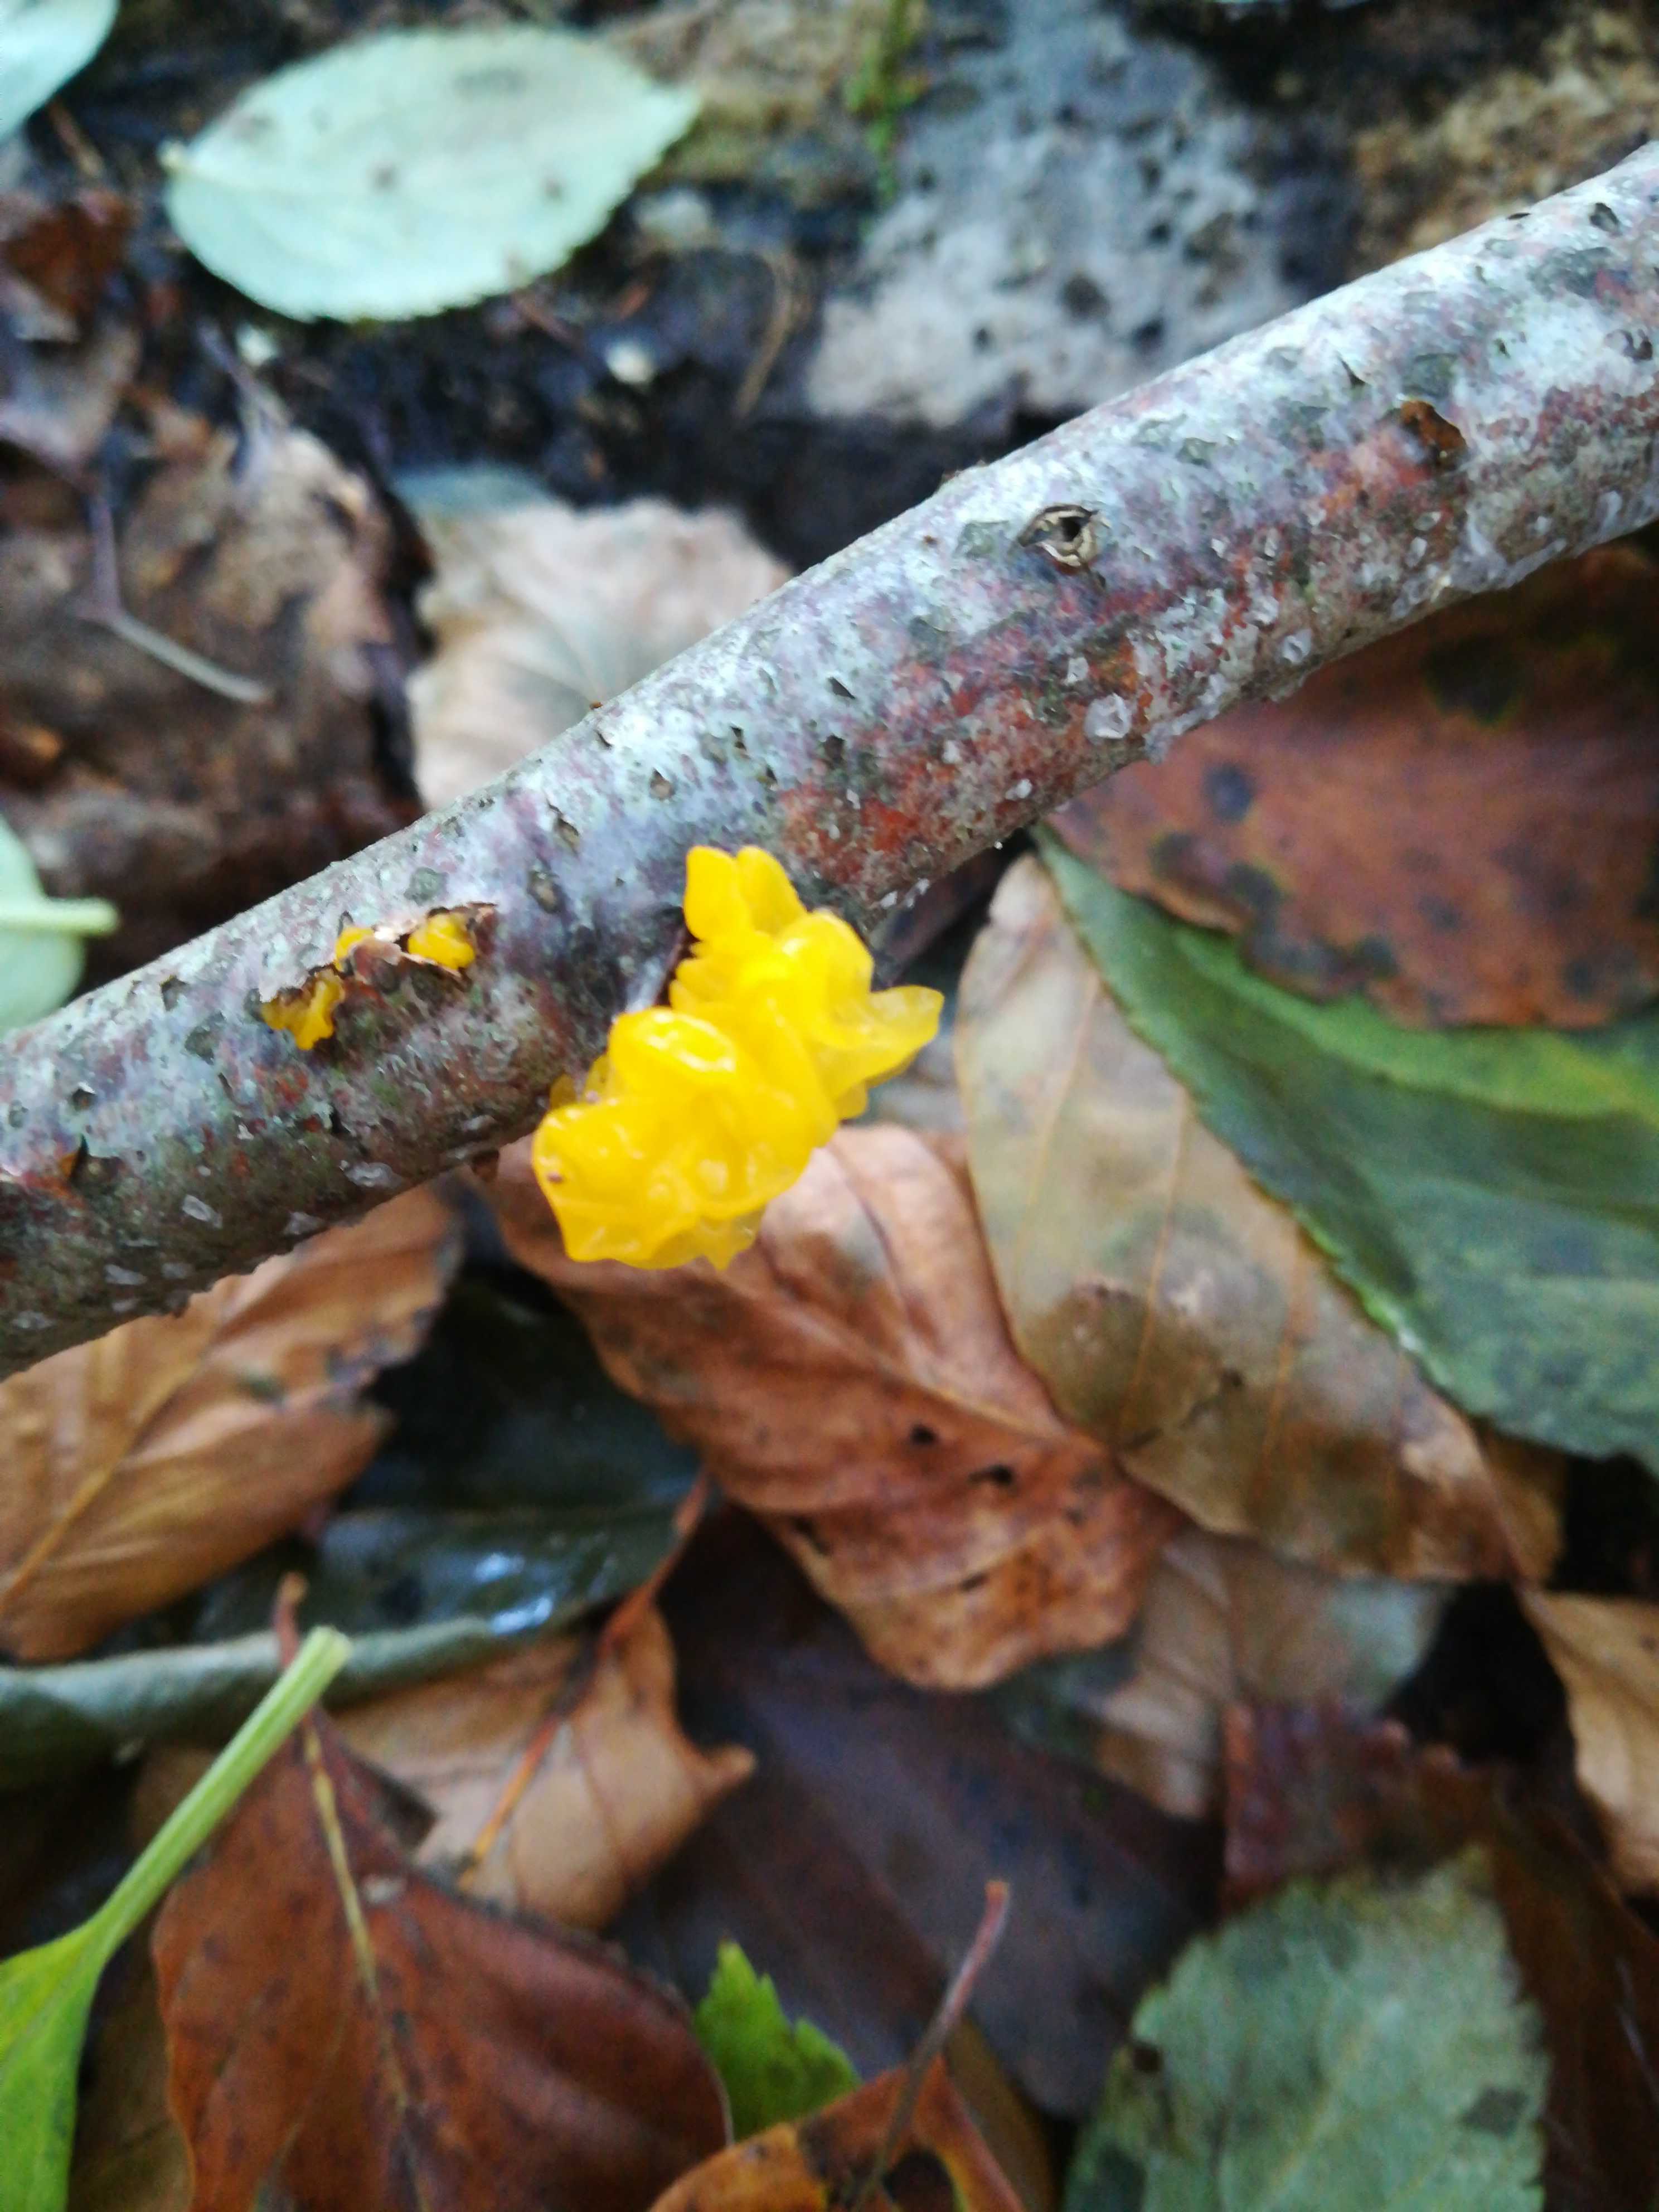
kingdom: Fungi
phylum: Basidiomycota
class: Tremellomycetes
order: Tremellales
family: Tremellaceae
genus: Tremella
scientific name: Tremella mesenterica
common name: gul bævresvamp
